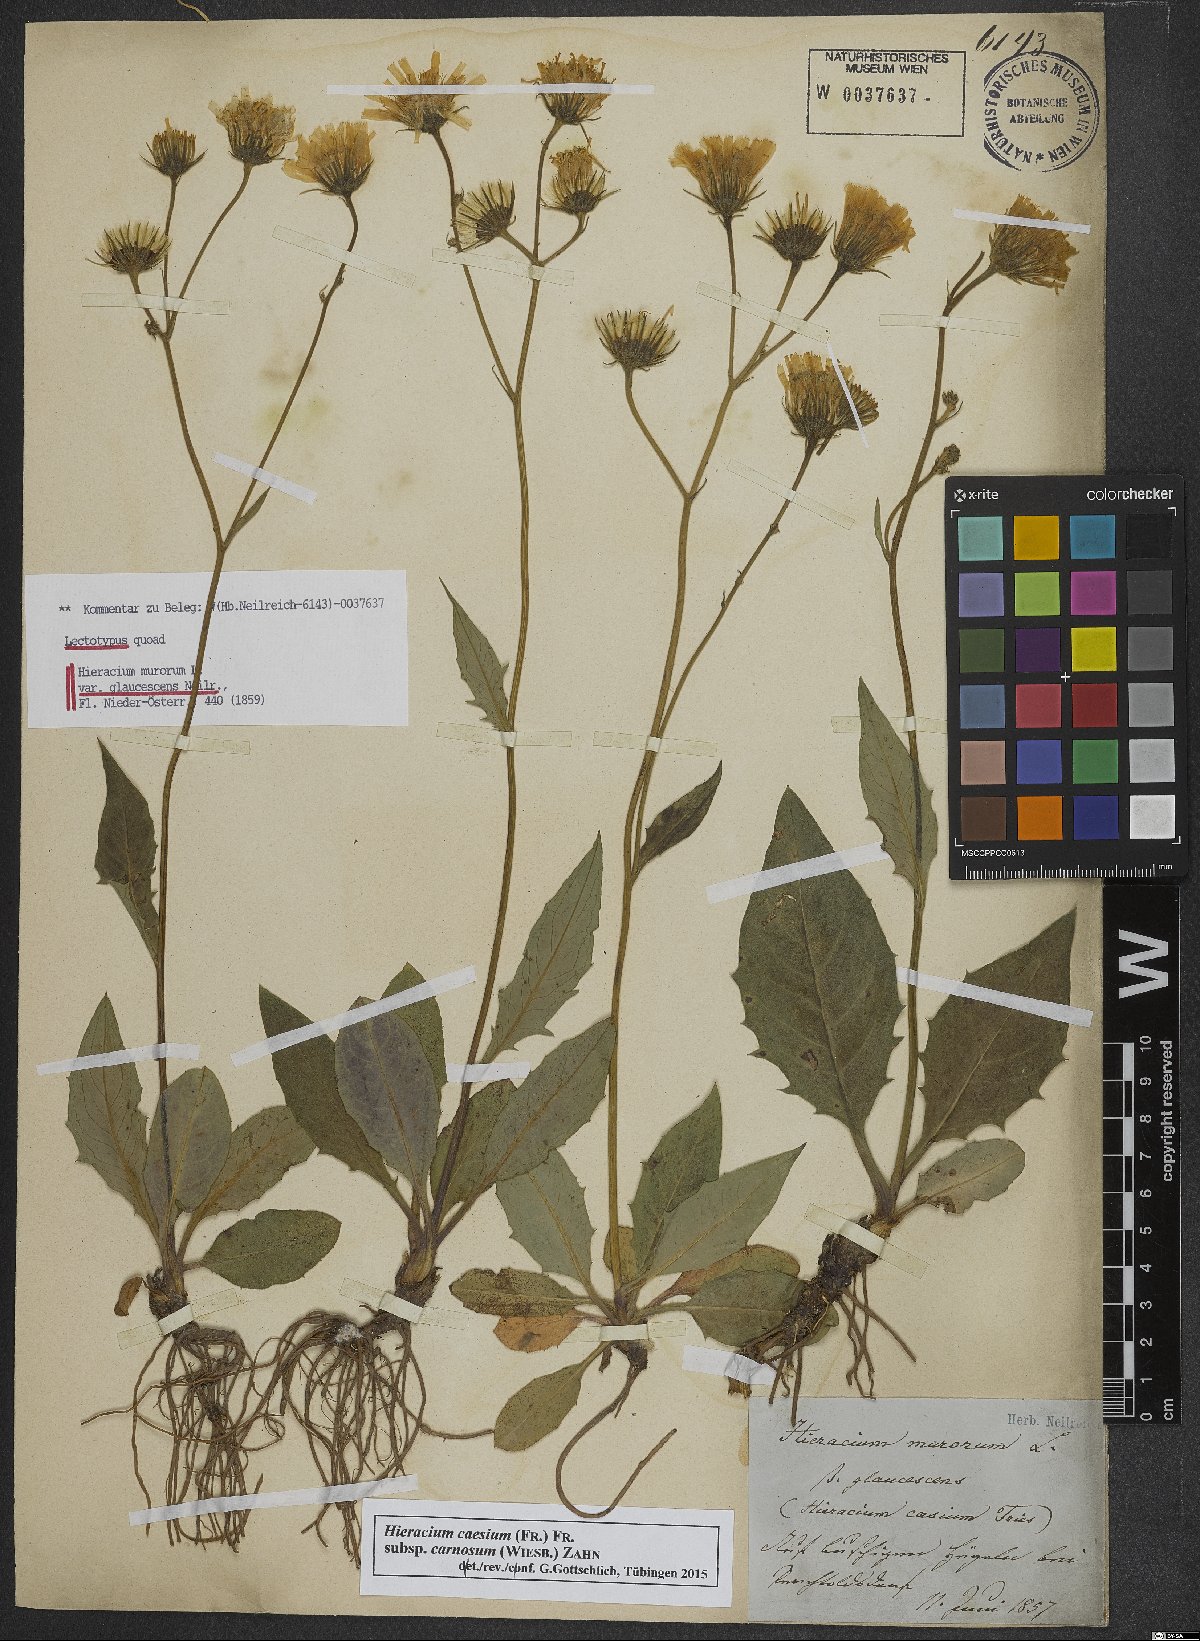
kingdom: Plantae
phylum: Tracheophyta
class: Magnoliopsida
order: Asterales
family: Asteraceae
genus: Hieracium
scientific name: Hieracium caesium
